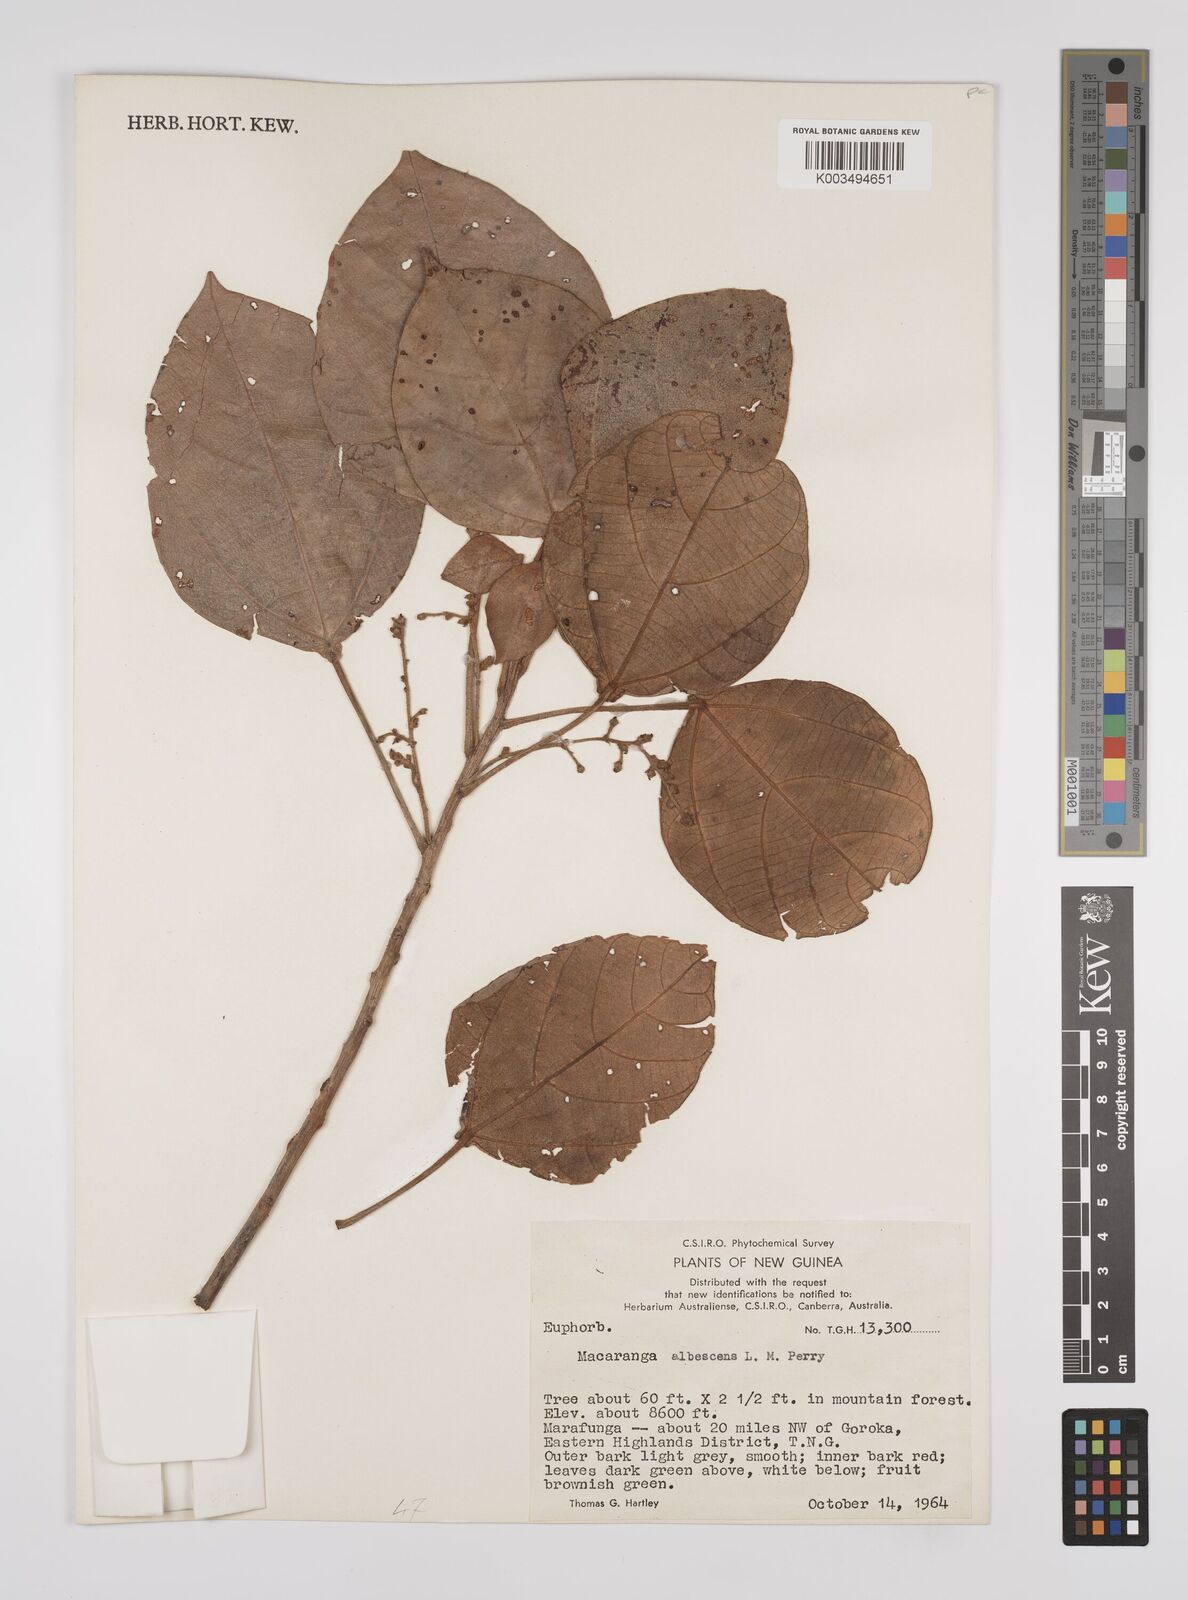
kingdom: Plantae
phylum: Tracheophyta
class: Magnoliopsida
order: Malpighiales
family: Euphorbiaceae
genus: Macaranga
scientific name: Macaranga albescens
